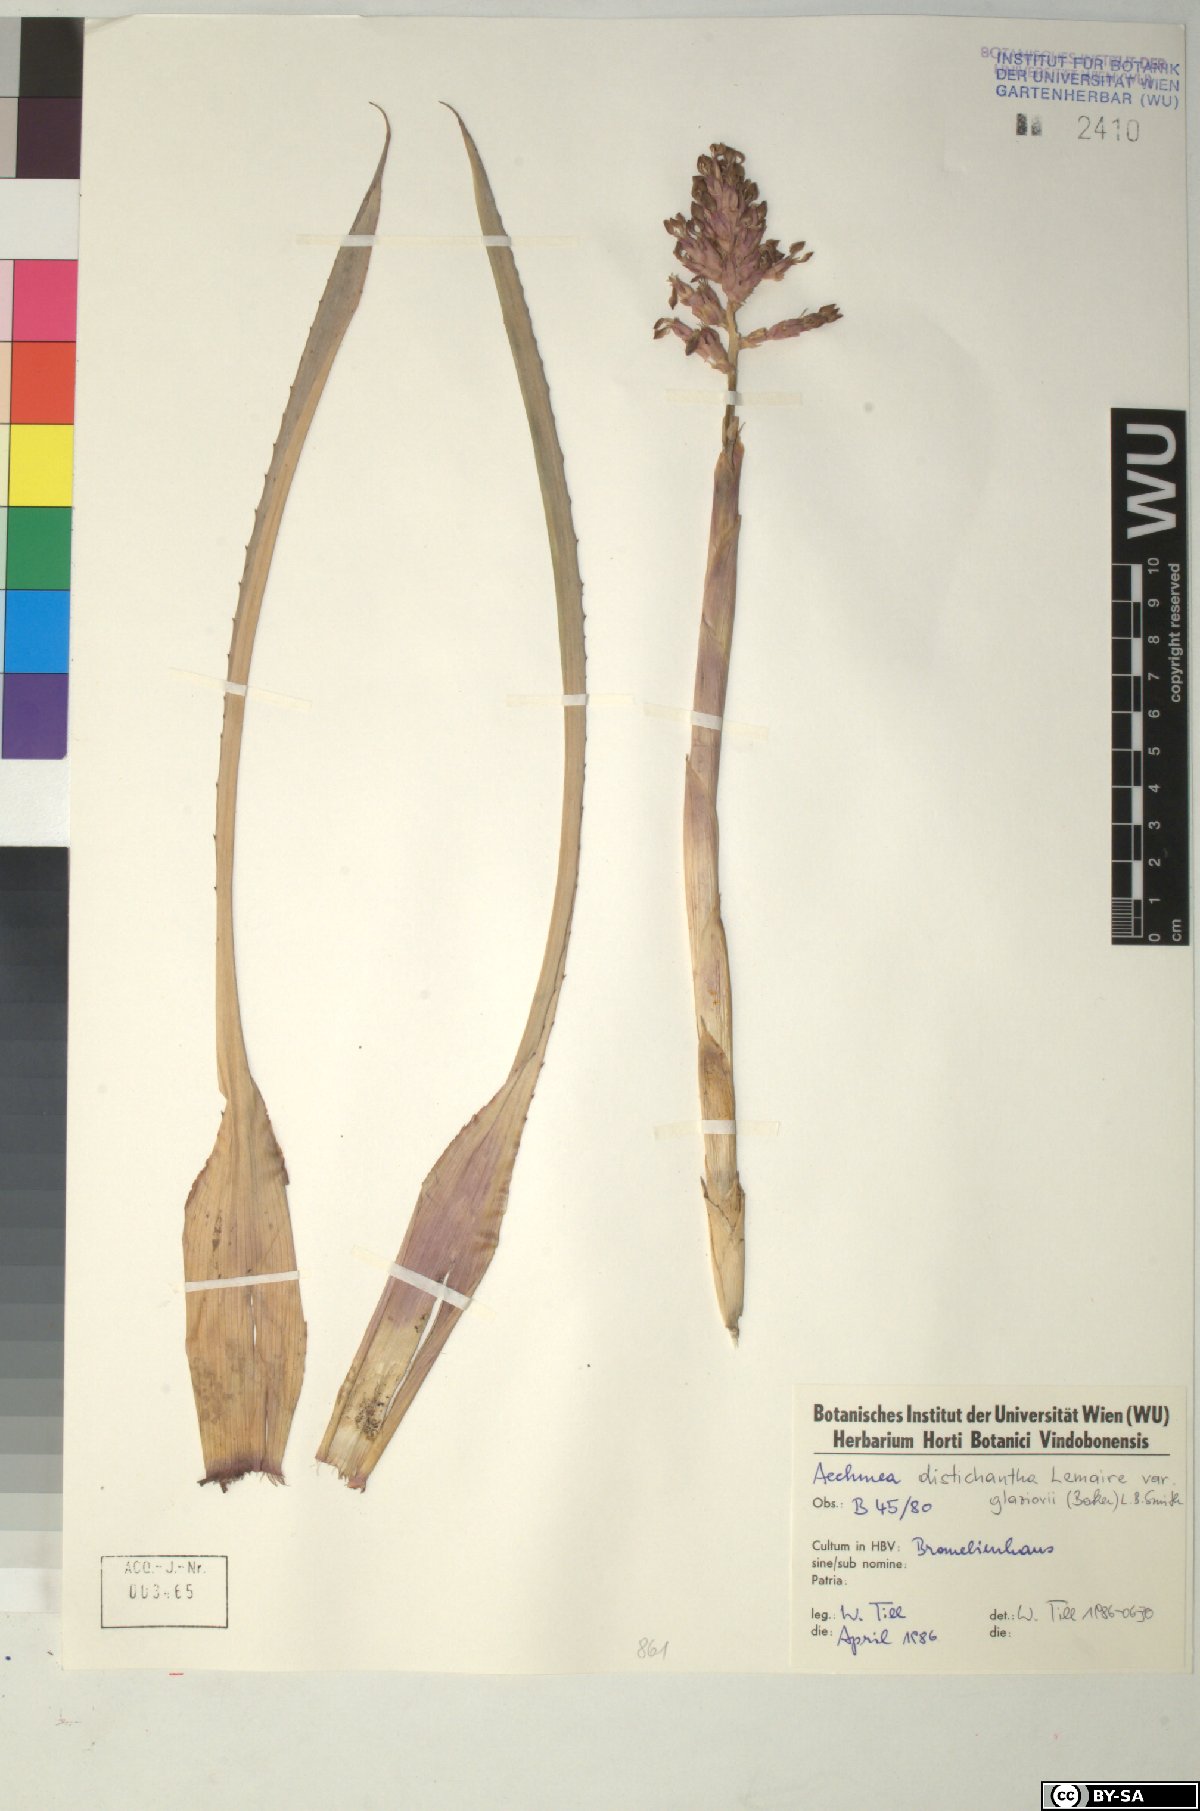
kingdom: Plantae
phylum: Tracheophyta
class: Liliopsida
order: Poales
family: Bromeliaceae
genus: Aechmea
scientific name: Aechmea distichantha
